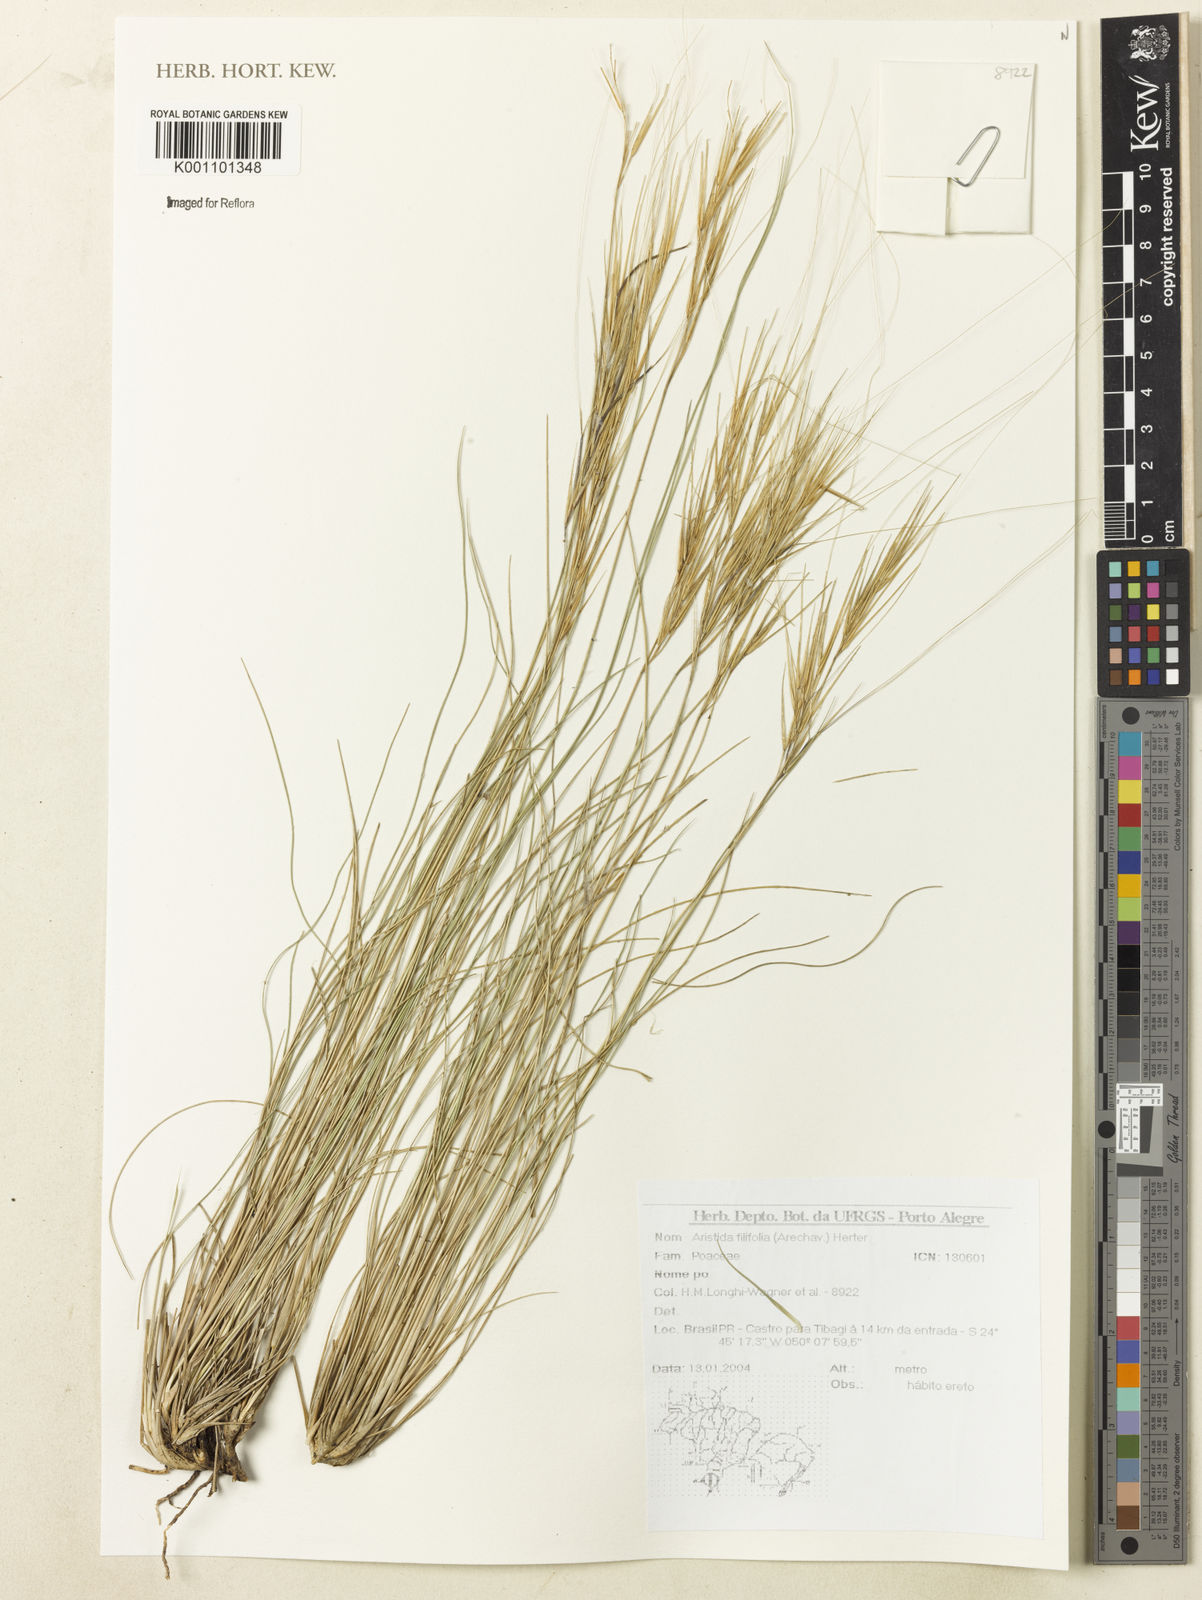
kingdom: Plantae
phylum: Tracheophyta
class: Liliopsida
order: Poales
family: Poaceae
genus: Aristida
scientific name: Aristida filifolia
